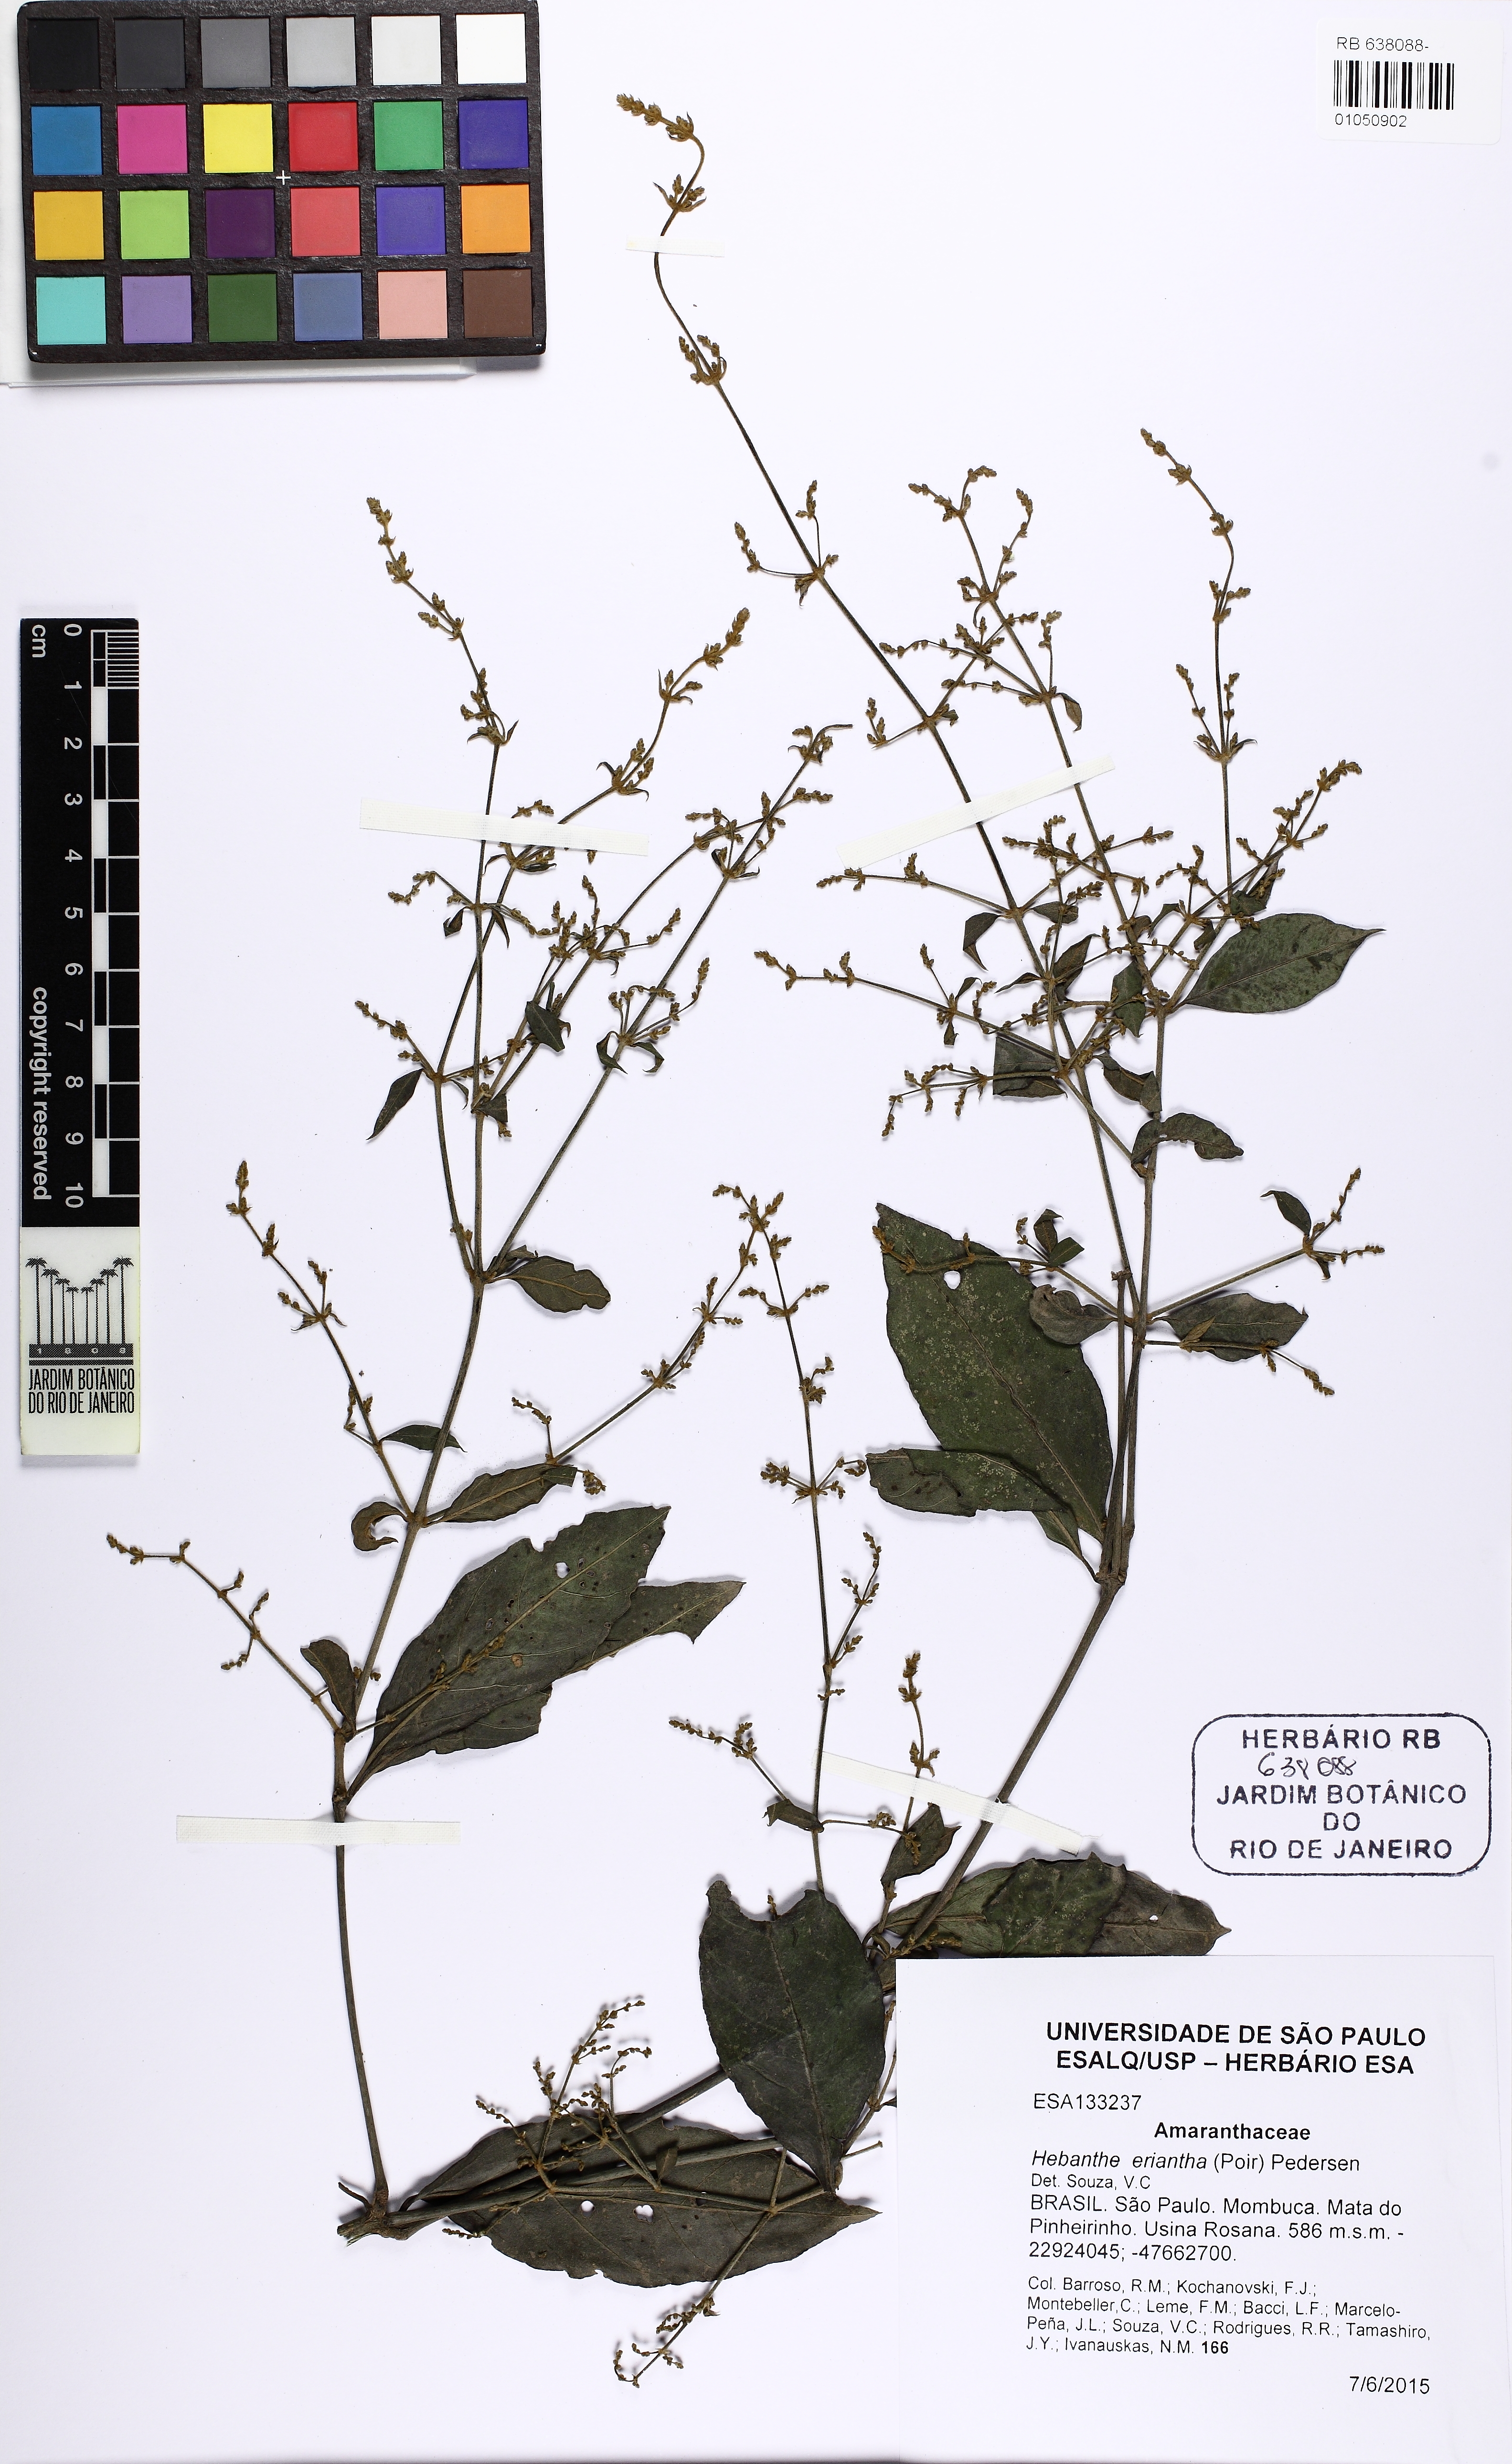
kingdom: Plantae
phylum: Tracheophyta
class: Magnoliopsida
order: Caryophyllales
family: Amaranthaceae
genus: Hebanthe
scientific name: Hebanthe erianthos
